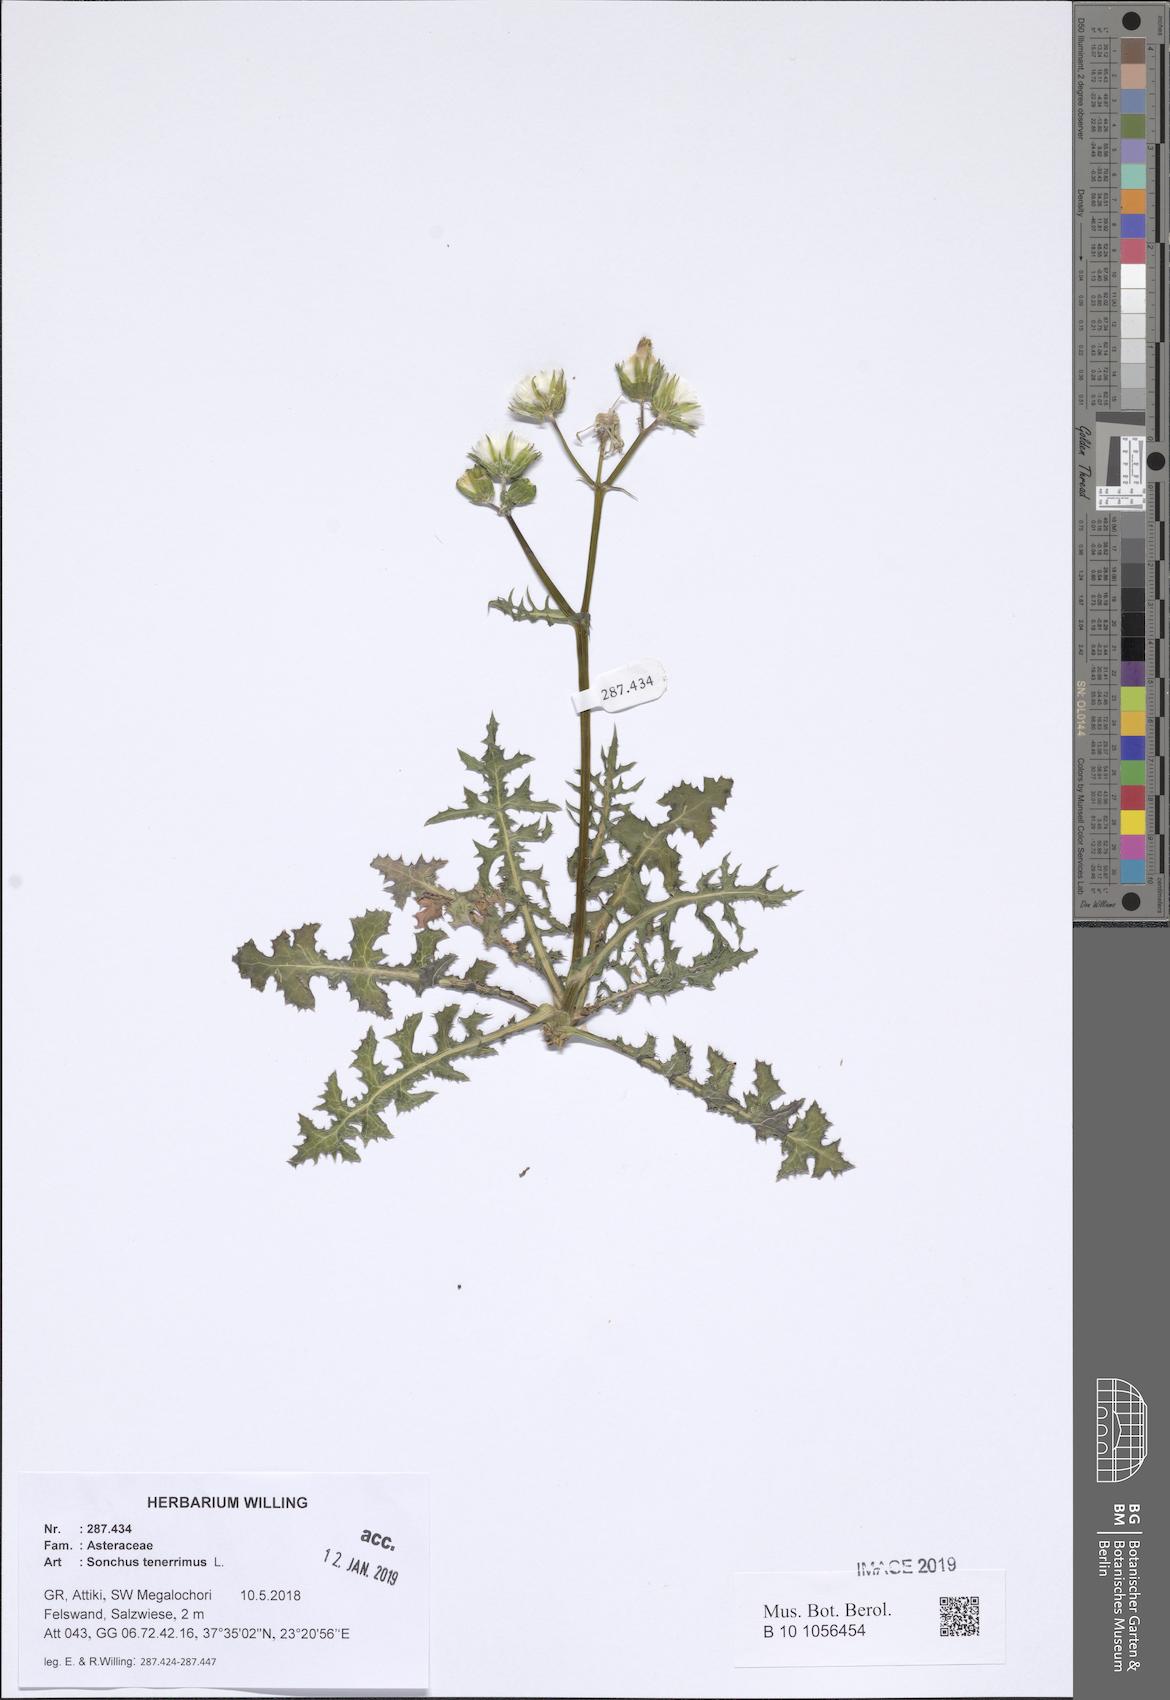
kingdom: Plantae
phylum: Tracheophyta
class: Magnoliopsida
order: Asterales
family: Asteraceae
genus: Sonchus
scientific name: Sonchus tenerrimus
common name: Clammy sowthistle
